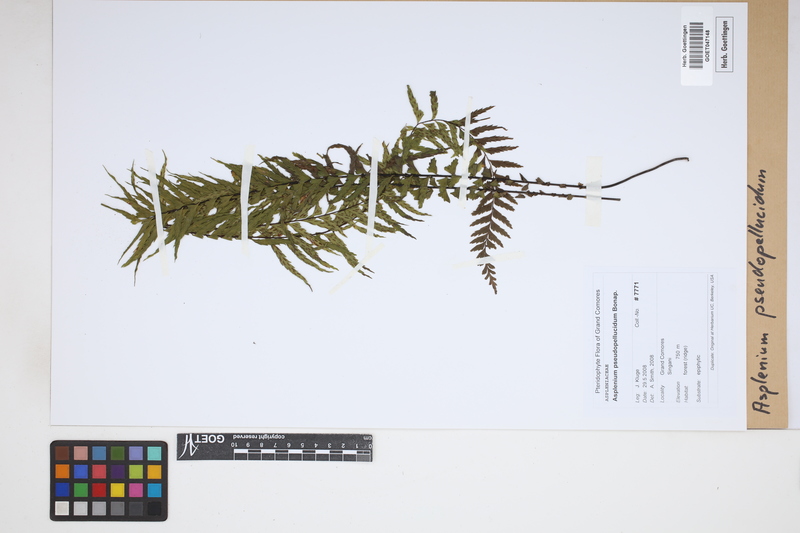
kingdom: Plantae
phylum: Tracheophyta
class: Polypodiopsida
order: Polypodiales
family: Aspleniaceae
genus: Asplenium
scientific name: Asplenium crinulosum
